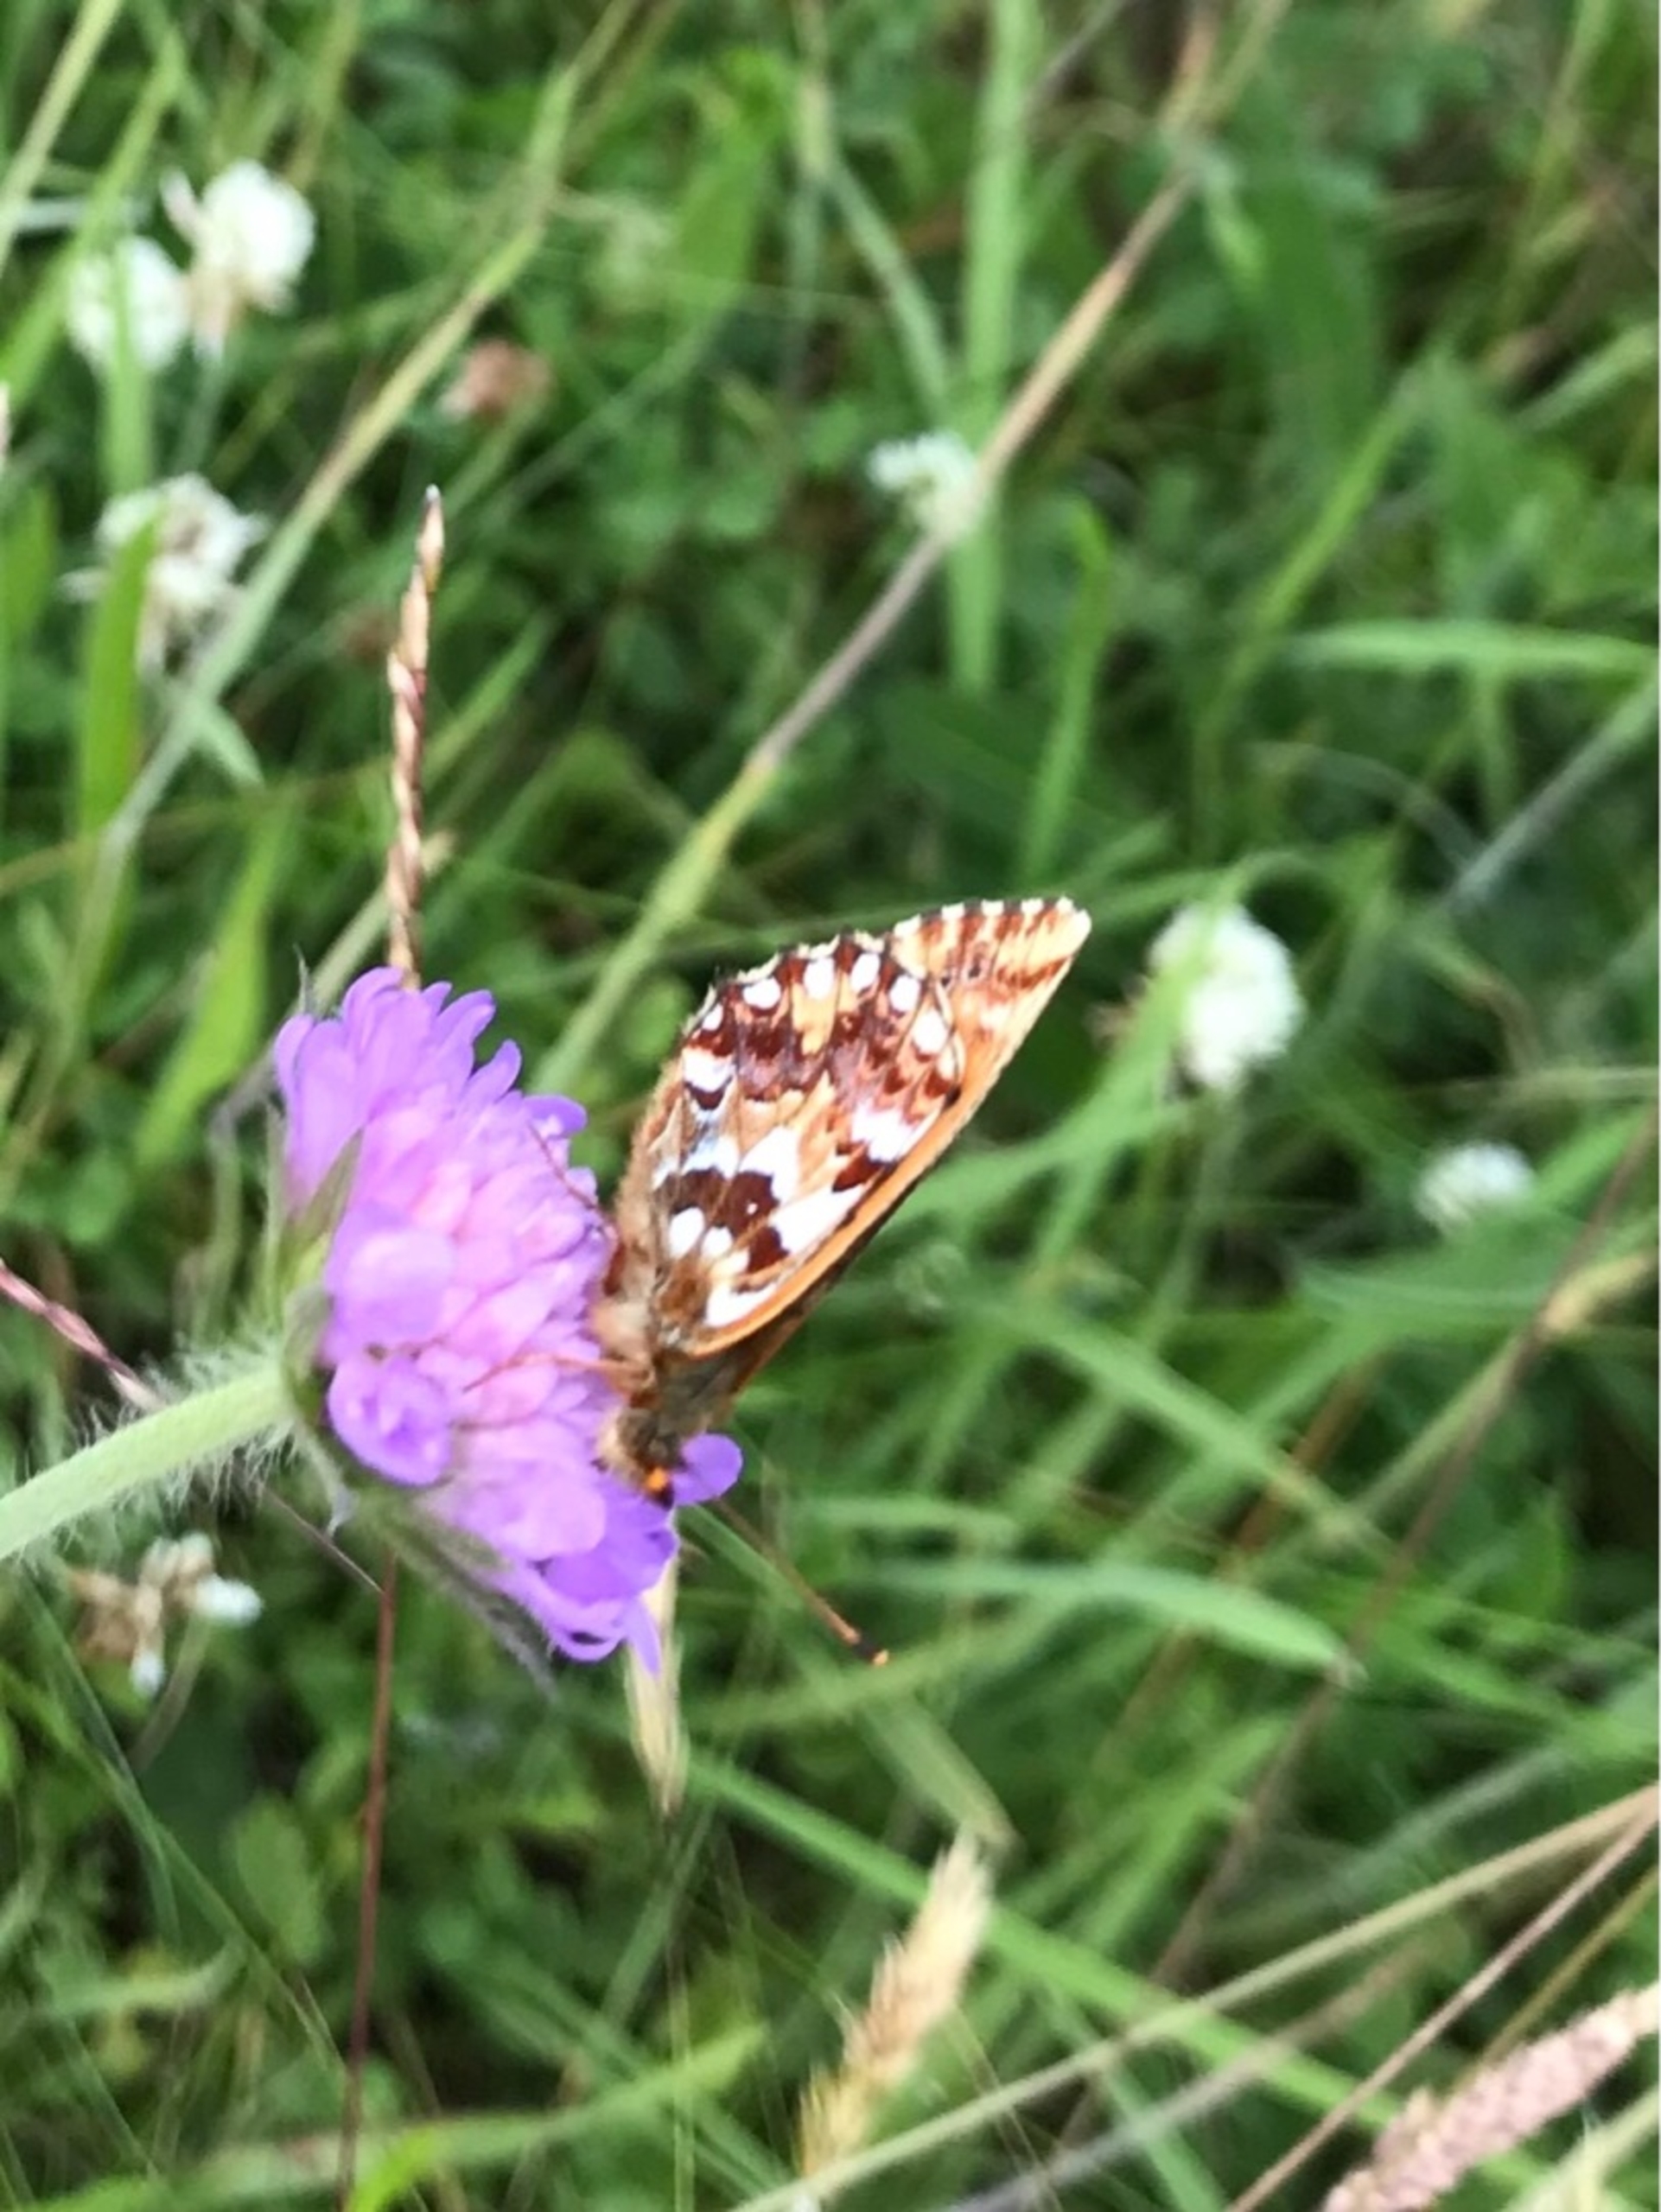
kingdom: Animalia
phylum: Arthropoda
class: Insecta
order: Lepidoptera
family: Nymphalidae
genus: Boloria
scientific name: Boloria aquilonaris
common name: Moseperlemorsommerfugl
